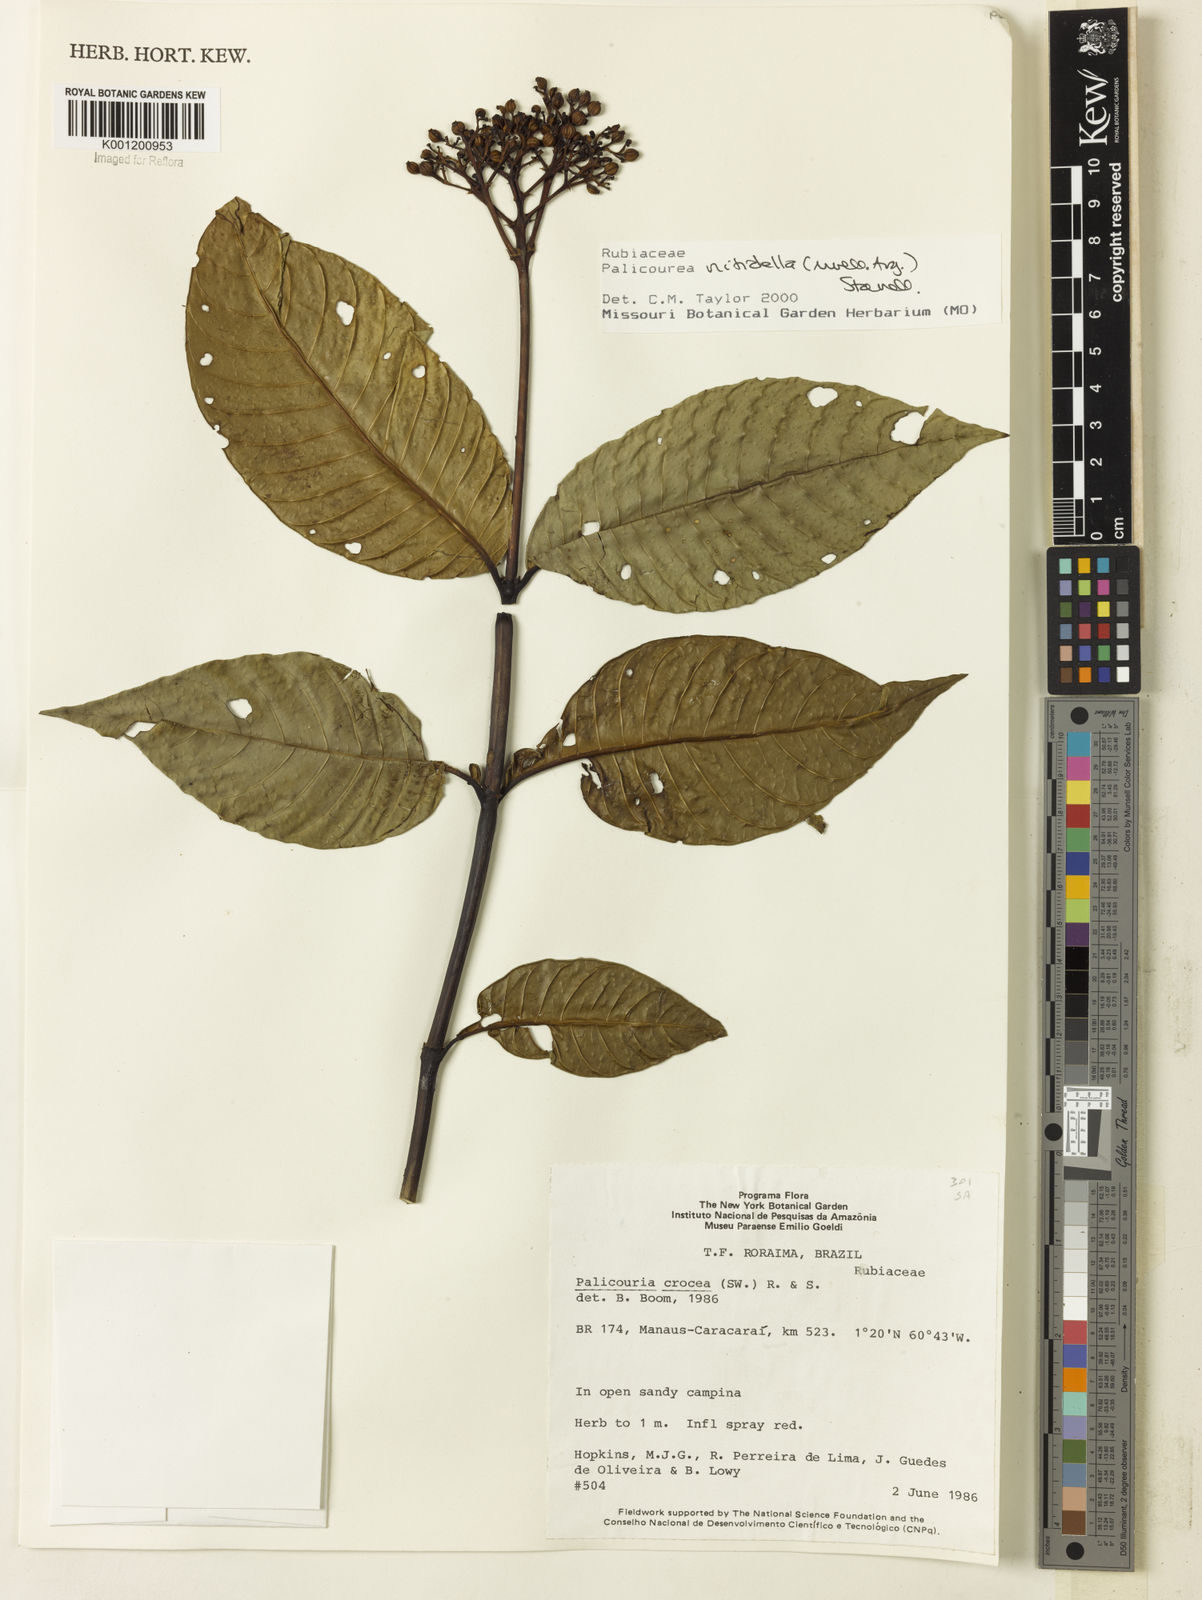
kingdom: Plantae
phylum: Tracheophyta
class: Magnoliopsida
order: Gentianales
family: Rubiaceae
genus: Palicourea
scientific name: Palicourea
